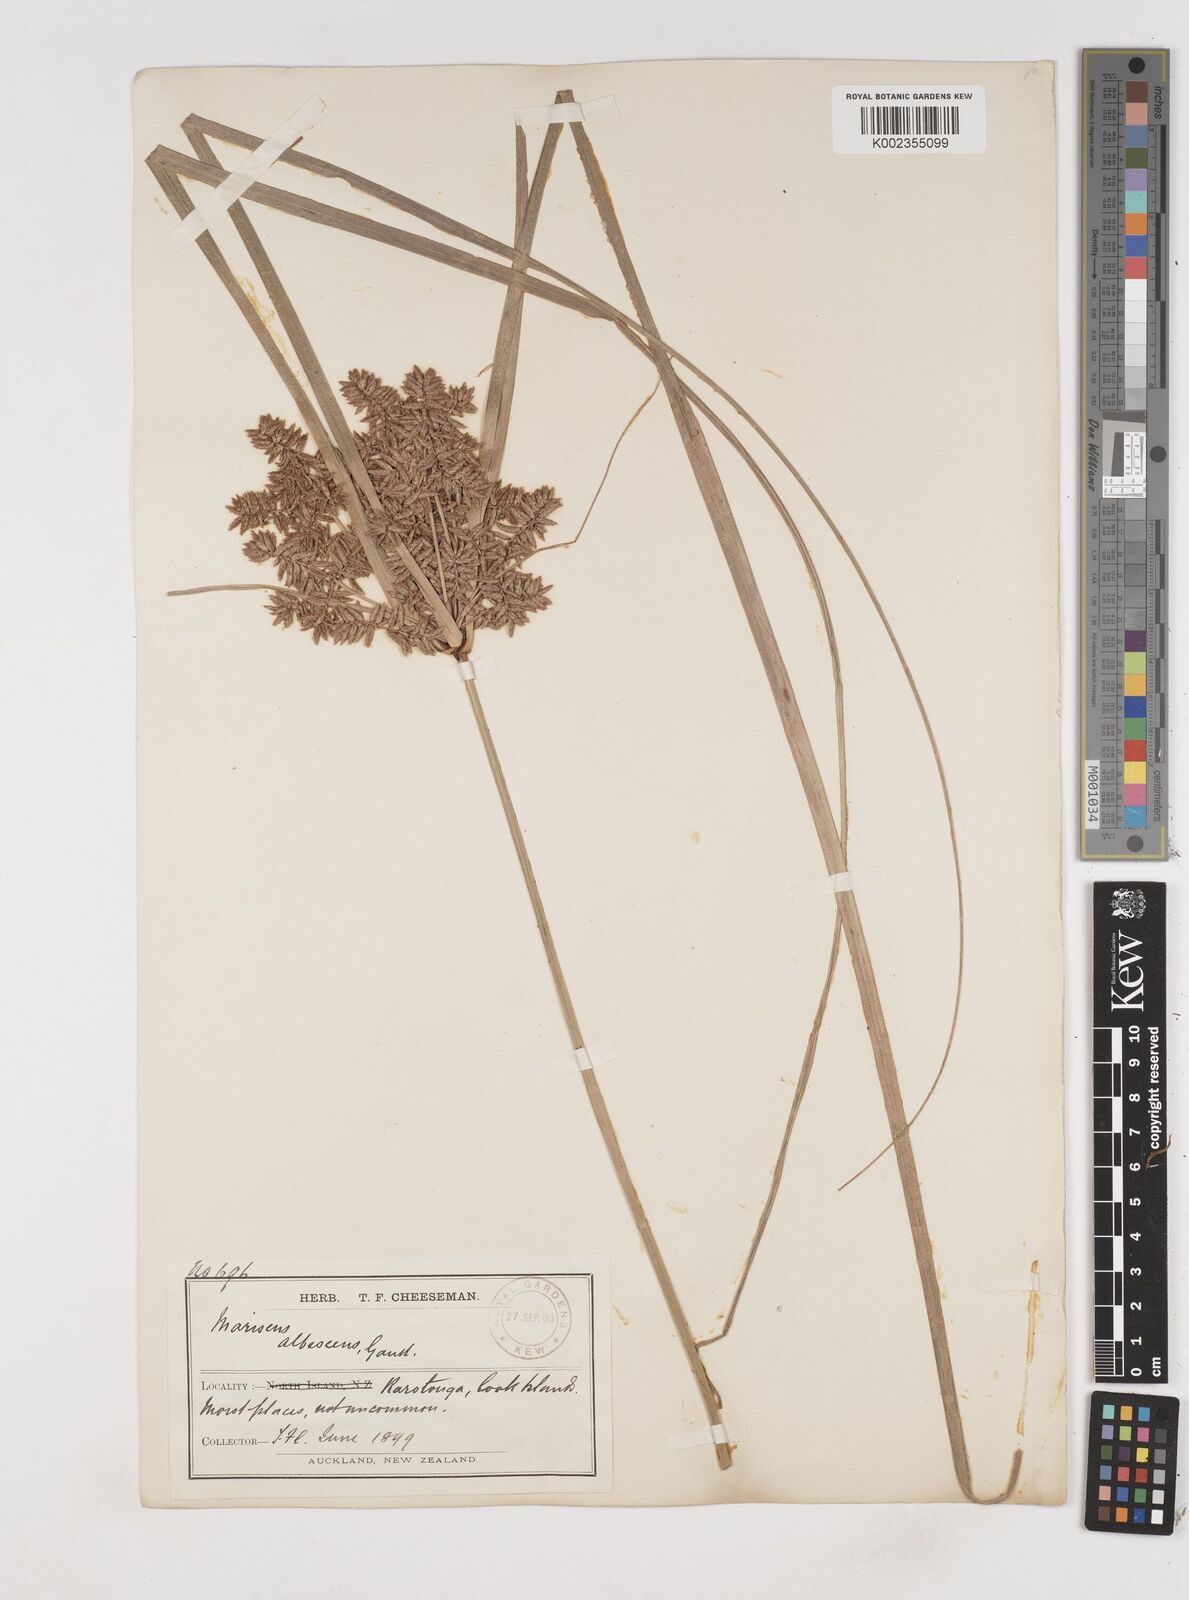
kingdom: Plantae
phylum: Tracheophyta
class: Liliopsida
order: Poales
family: Cyperaceae
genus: Cyperus
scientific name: Cyperus javanicus
